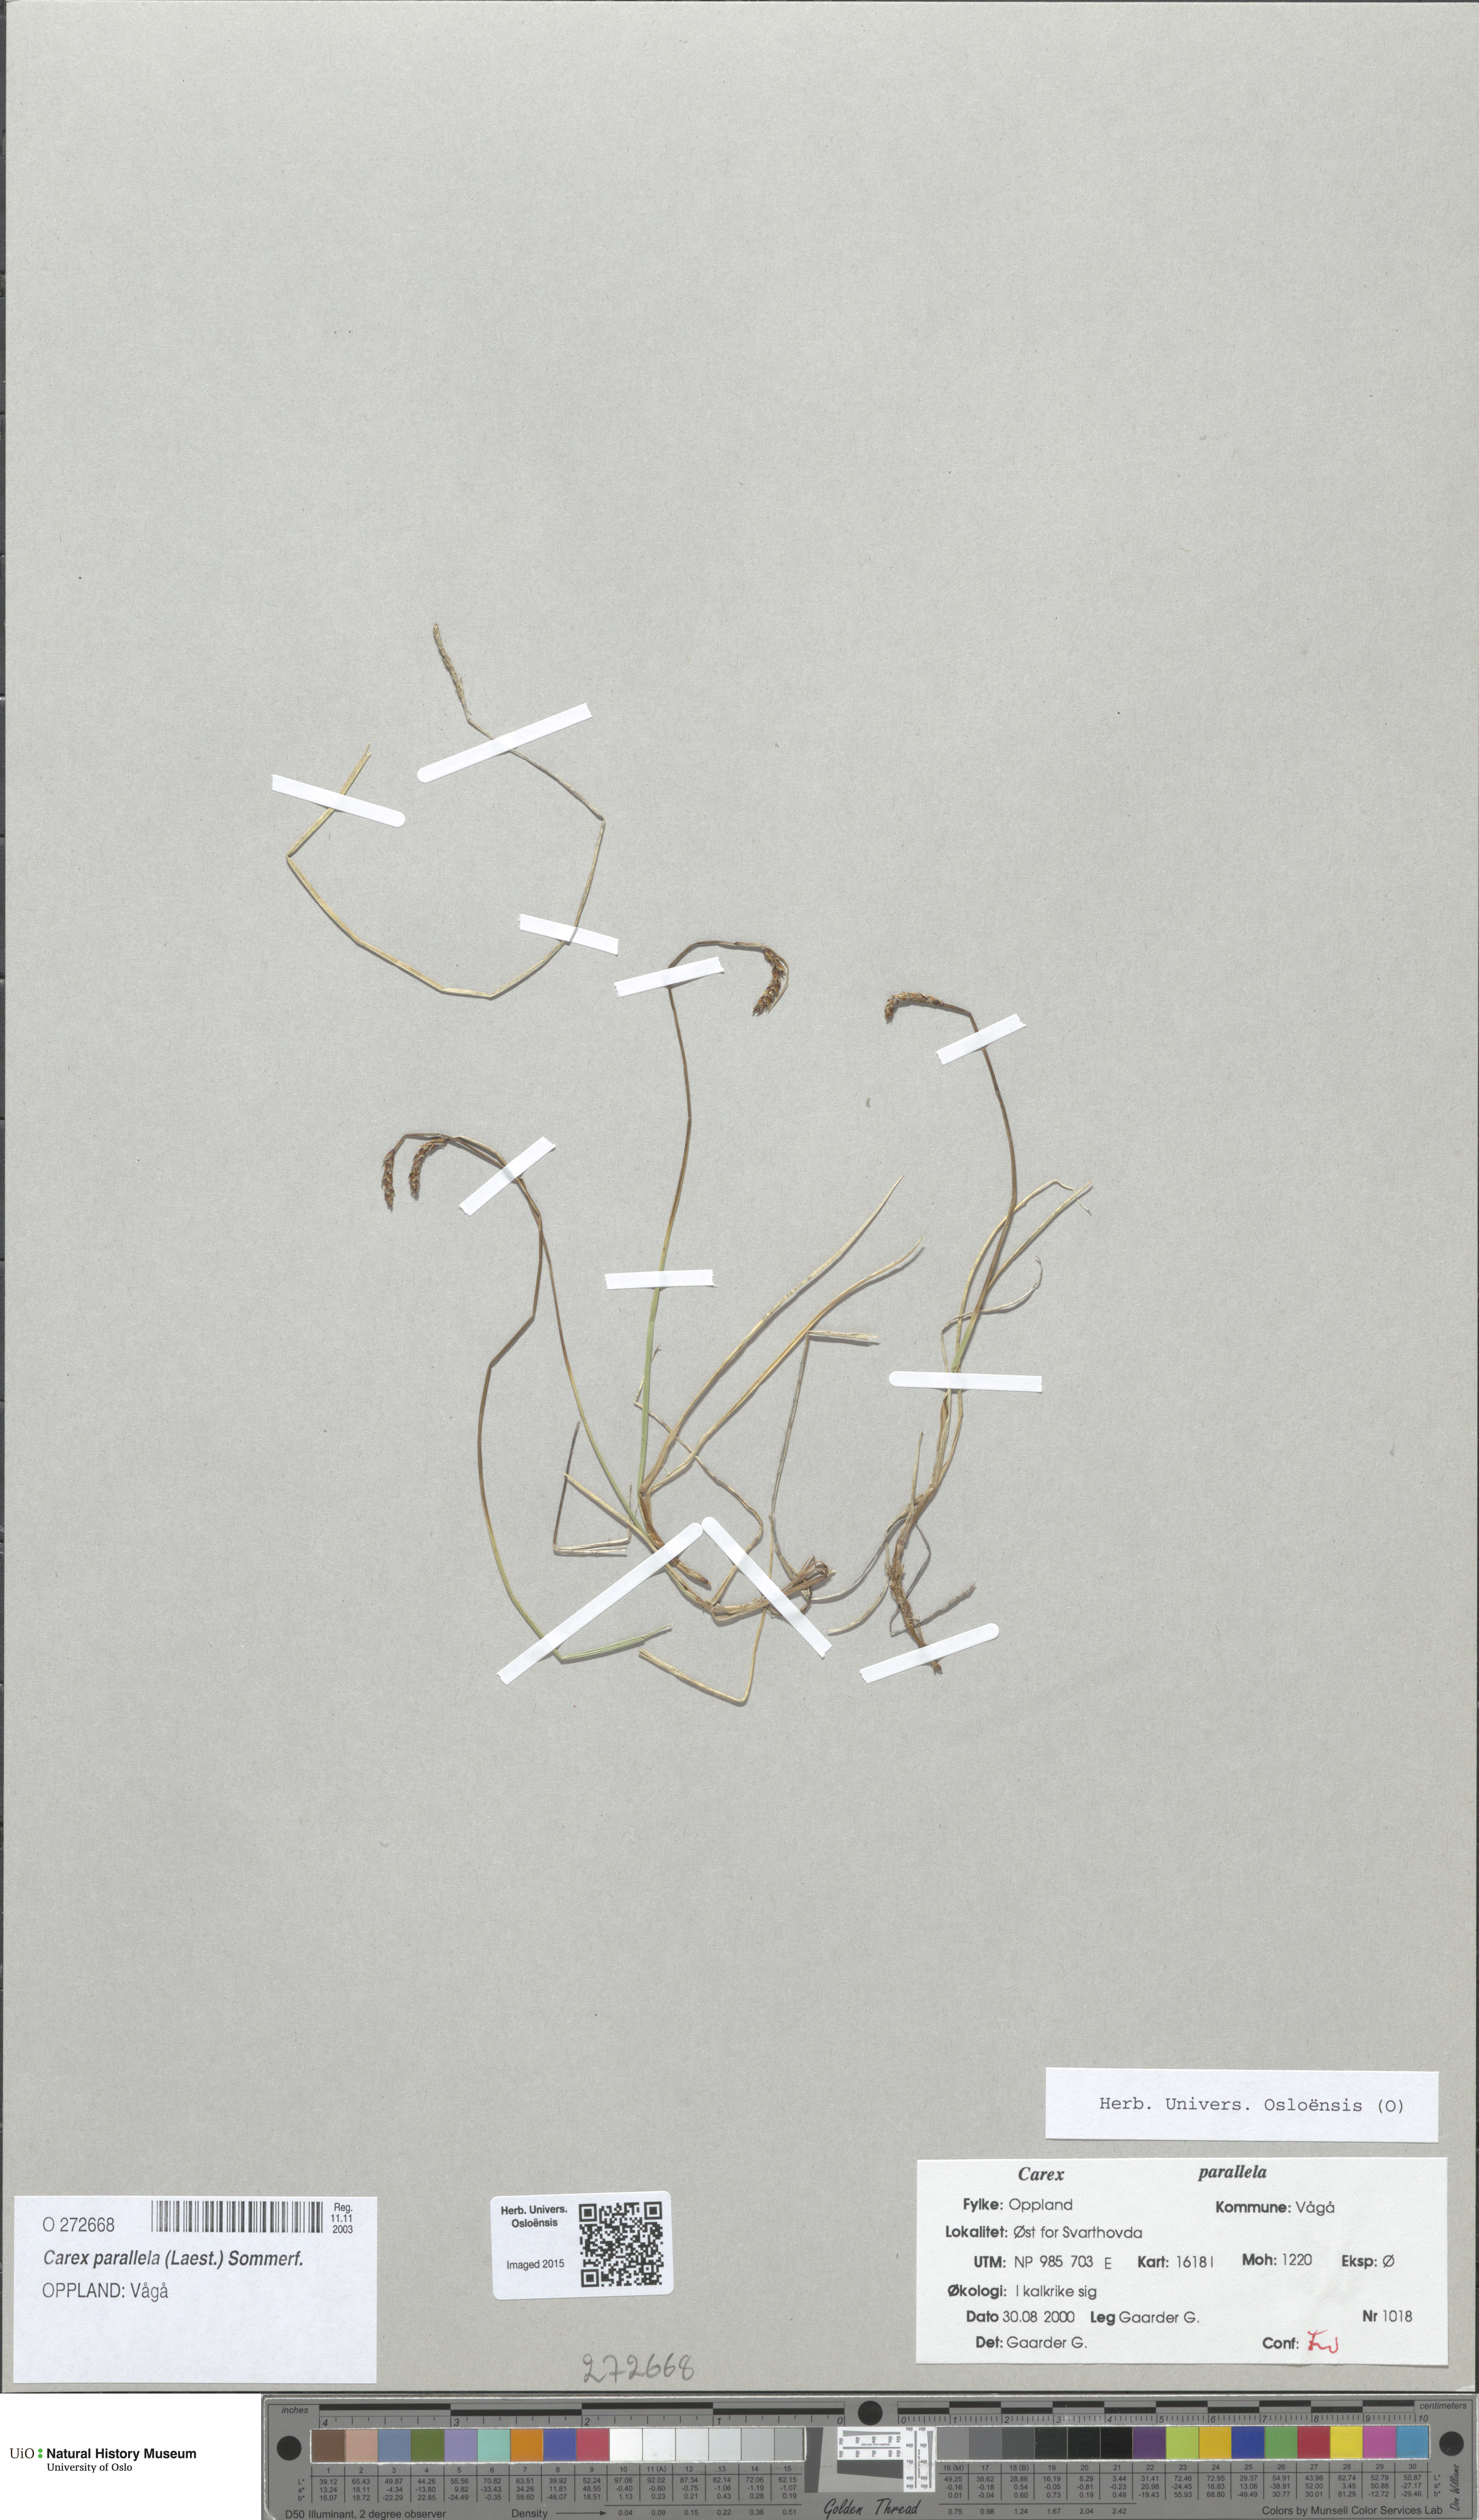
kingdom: Plantae
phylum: Tracheophyta
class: Liliopsida
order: Poales
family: Cyperaceae
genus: Carex
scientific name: Carex parallela
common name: Parallel sedge
